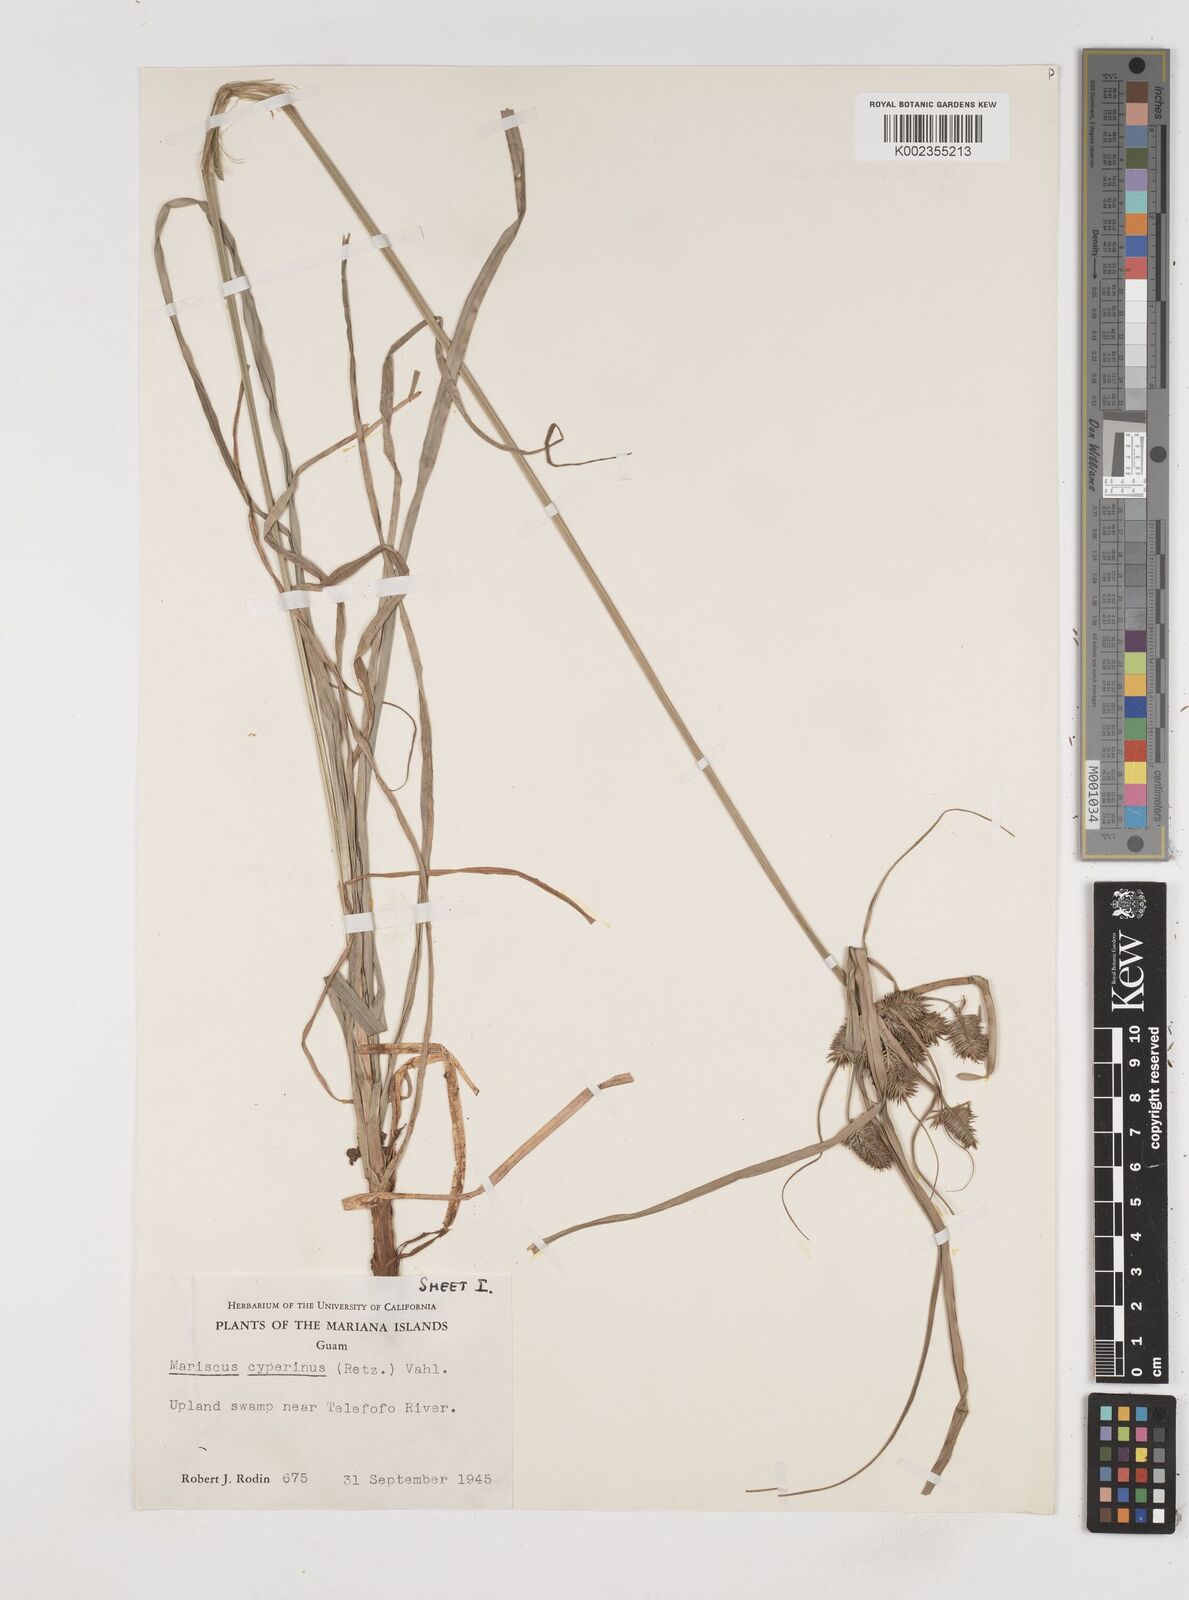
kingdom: Plantae
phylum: Tracheophyta
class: Liliopsida
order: Poales
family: Cyperaceae
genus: Cyperus
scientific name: Cyperus cyperinus
